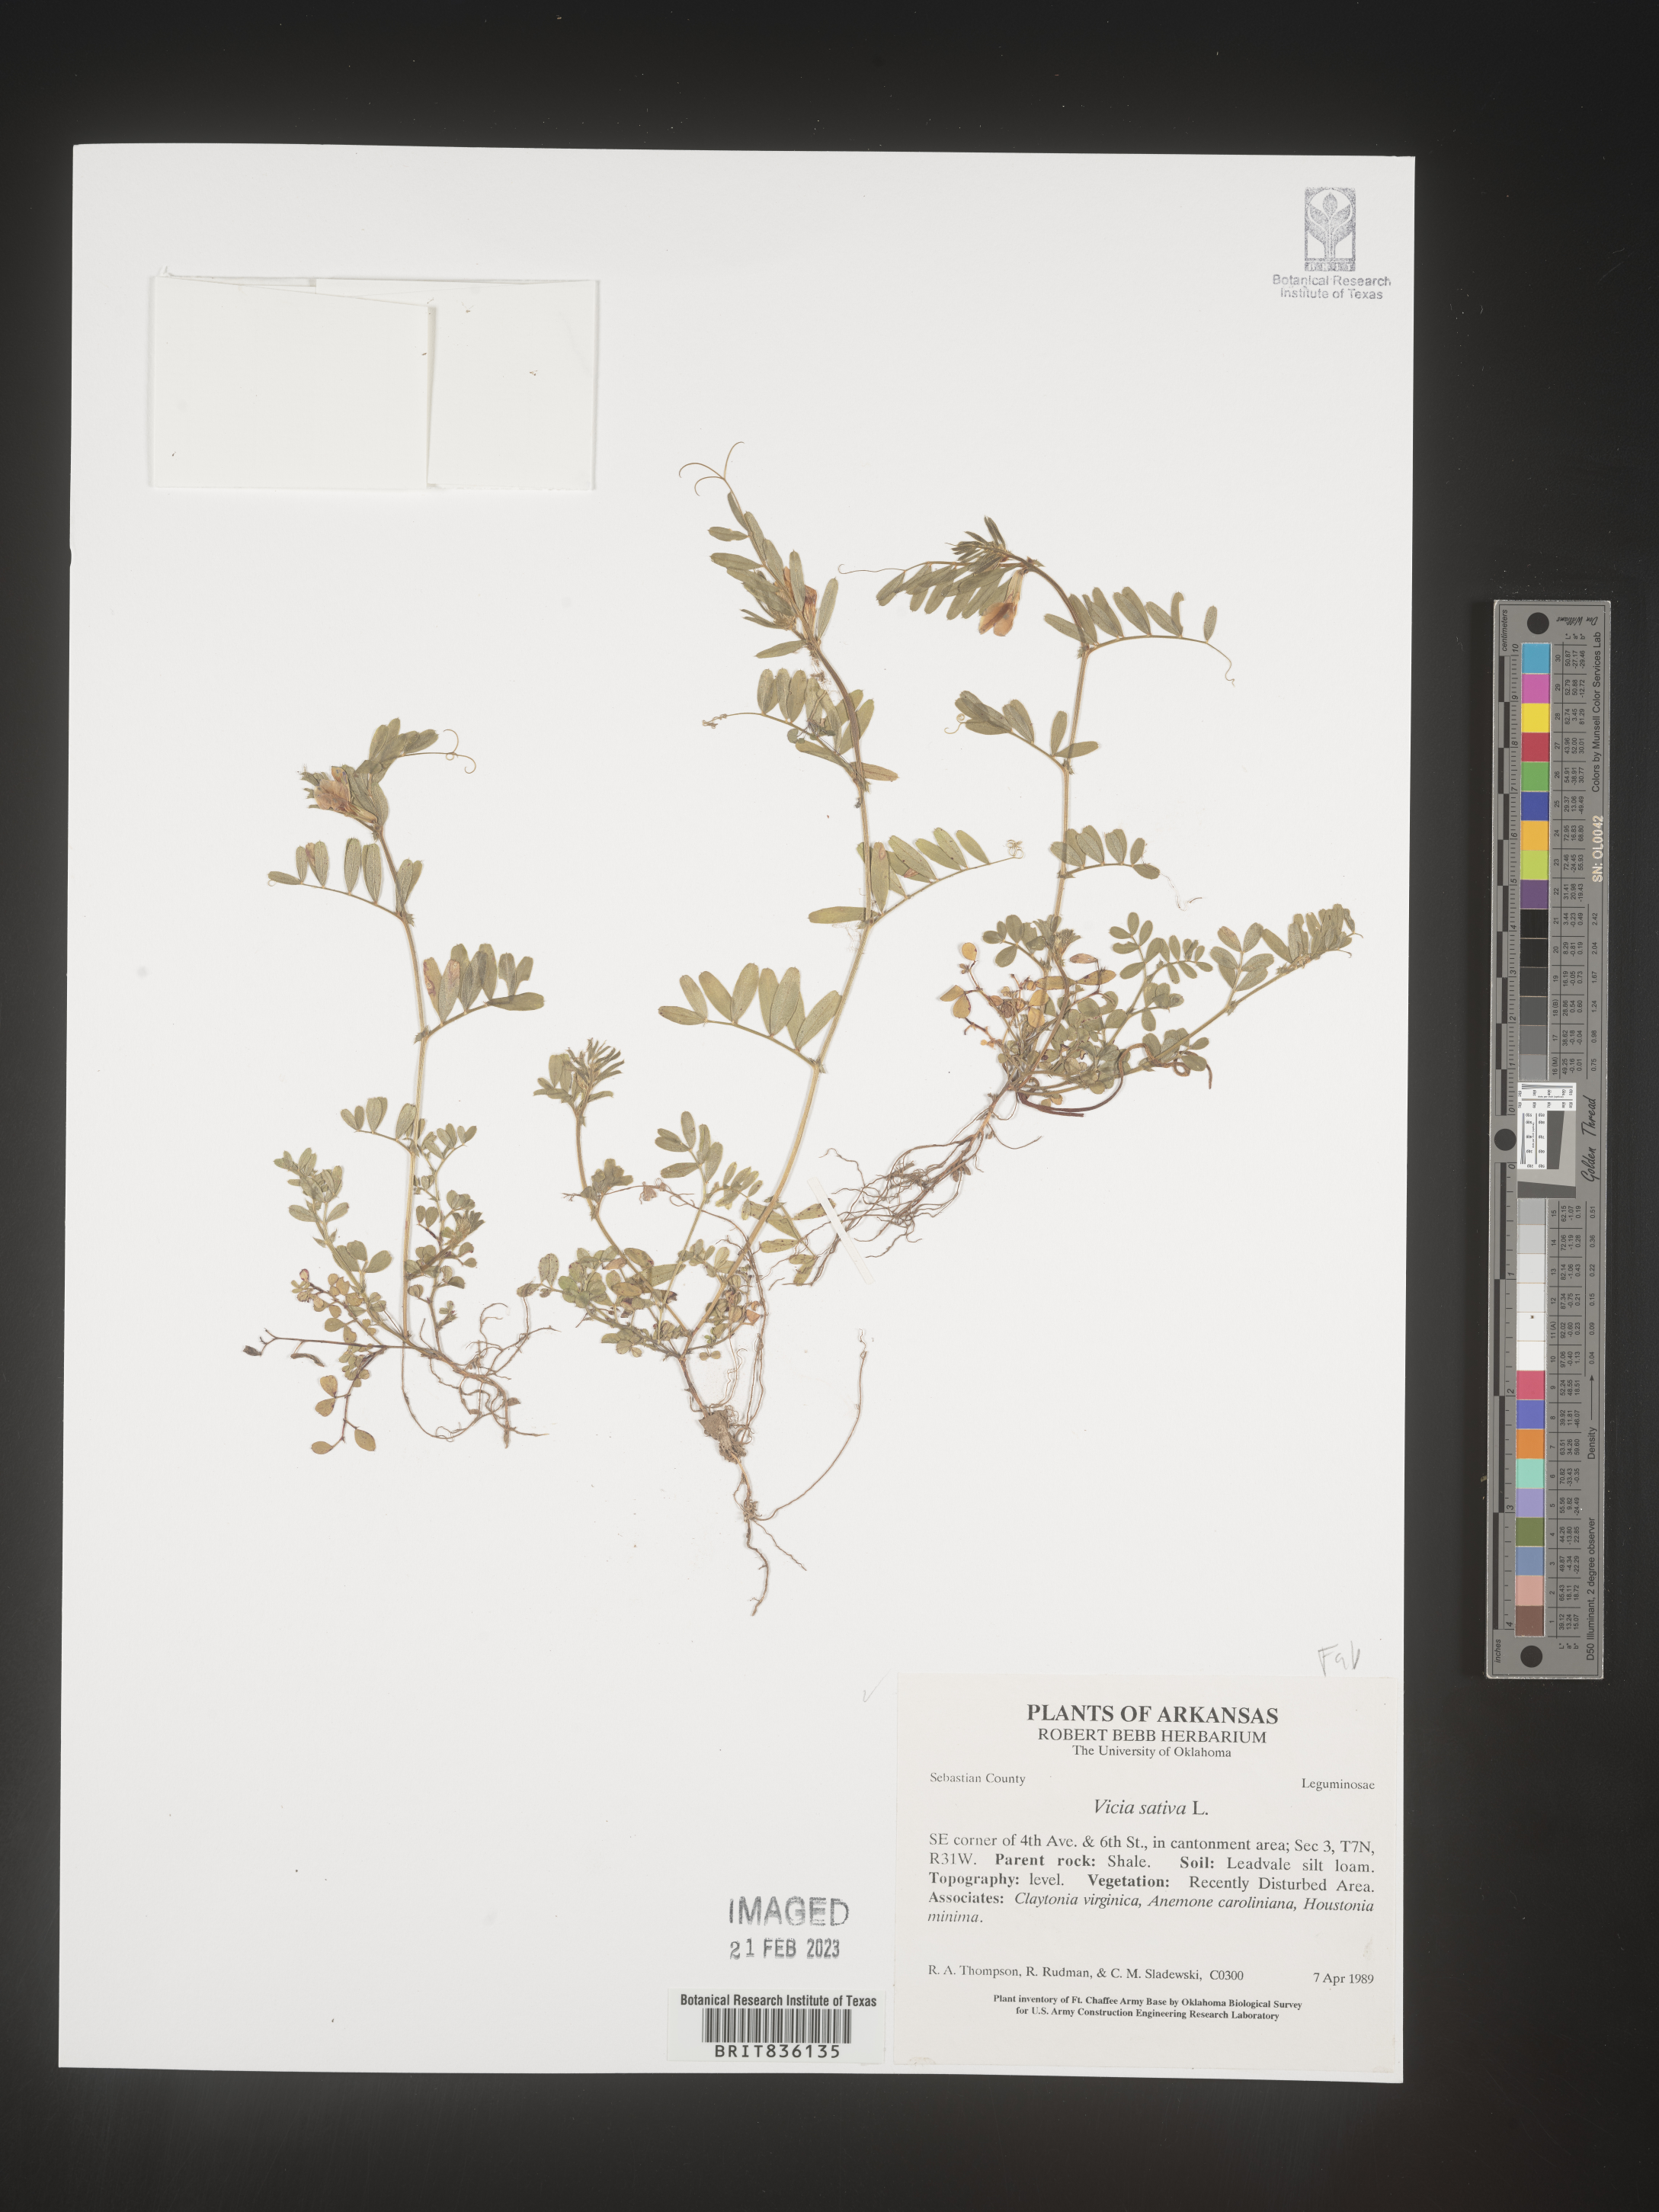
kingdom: Plantae
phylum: Tracheophyta
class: Magnoliopsida
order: Fabales
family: Fabaceae
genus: Vicia
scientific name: Vicia sativa
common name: Garden vetch
